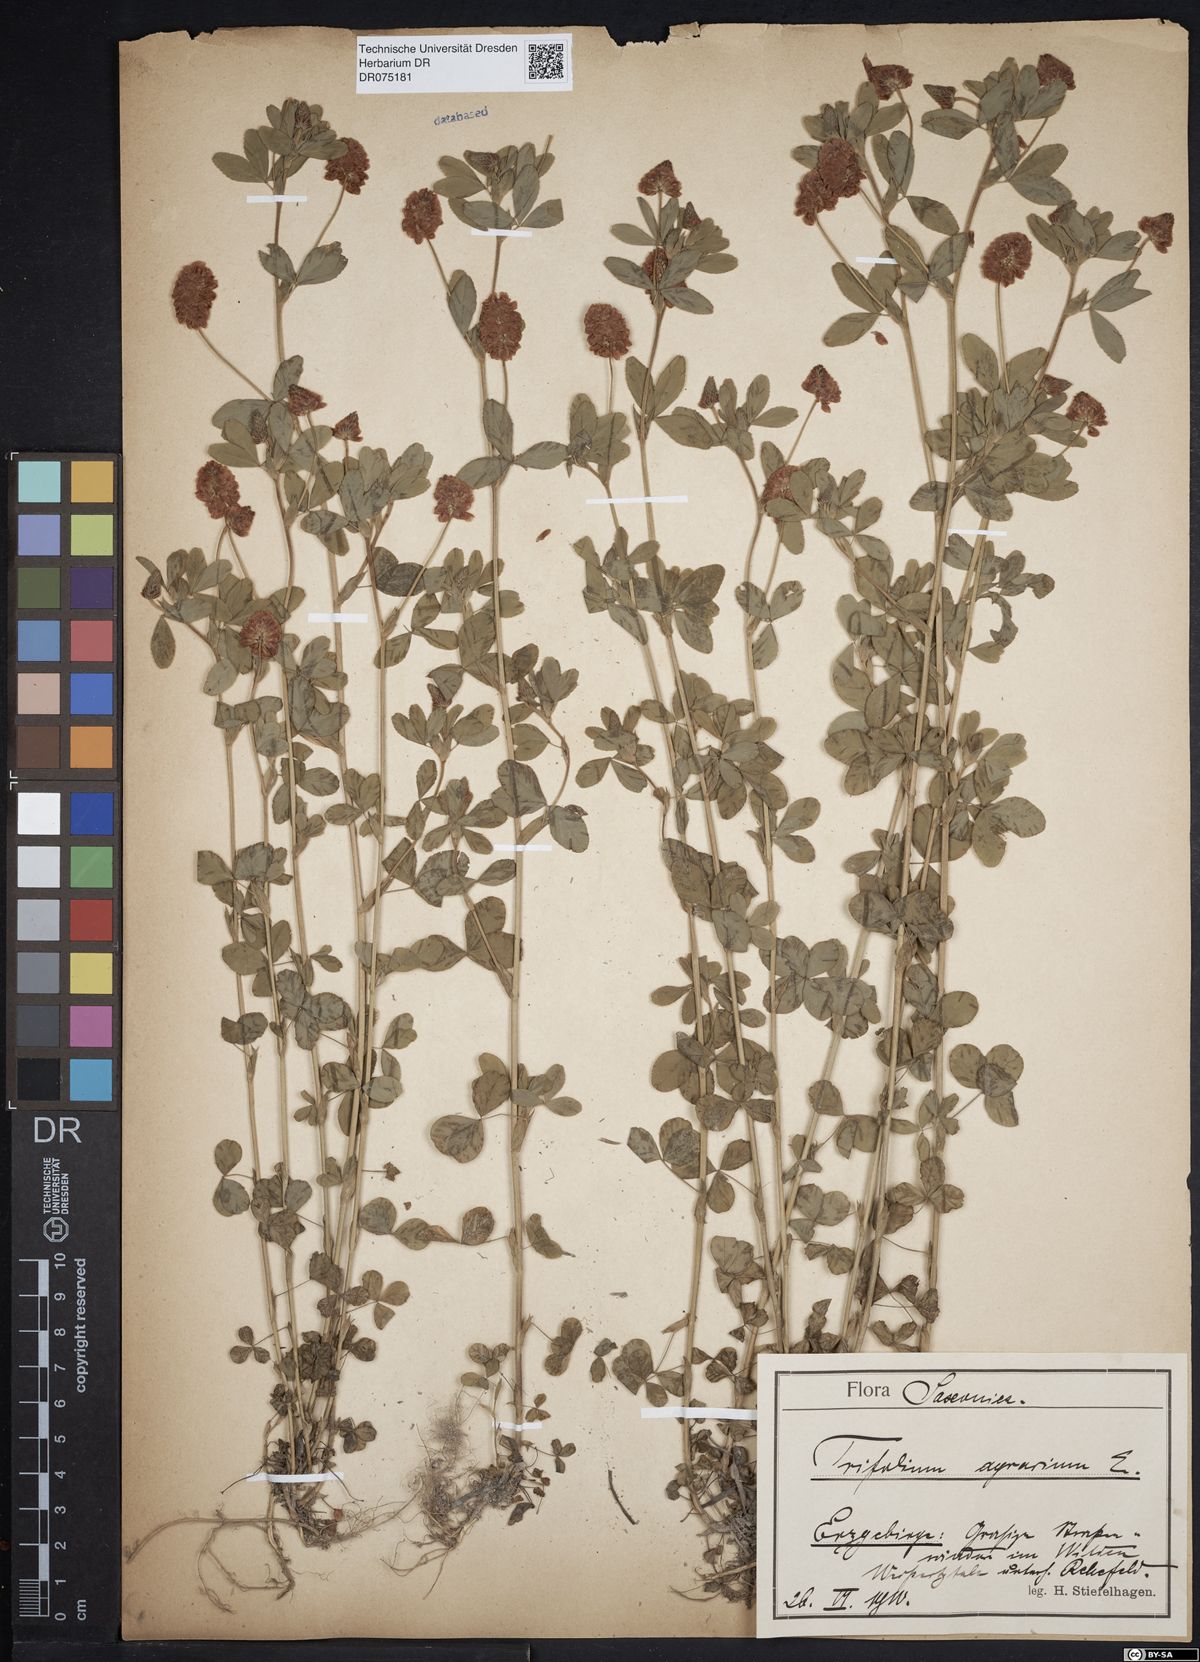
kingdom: Plantae
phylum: Tracheophyta
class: Magnoliopsida
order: Fabales
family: Fabaceae
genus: Trifolium
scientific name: Trifolium aureum
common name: Golden clover
